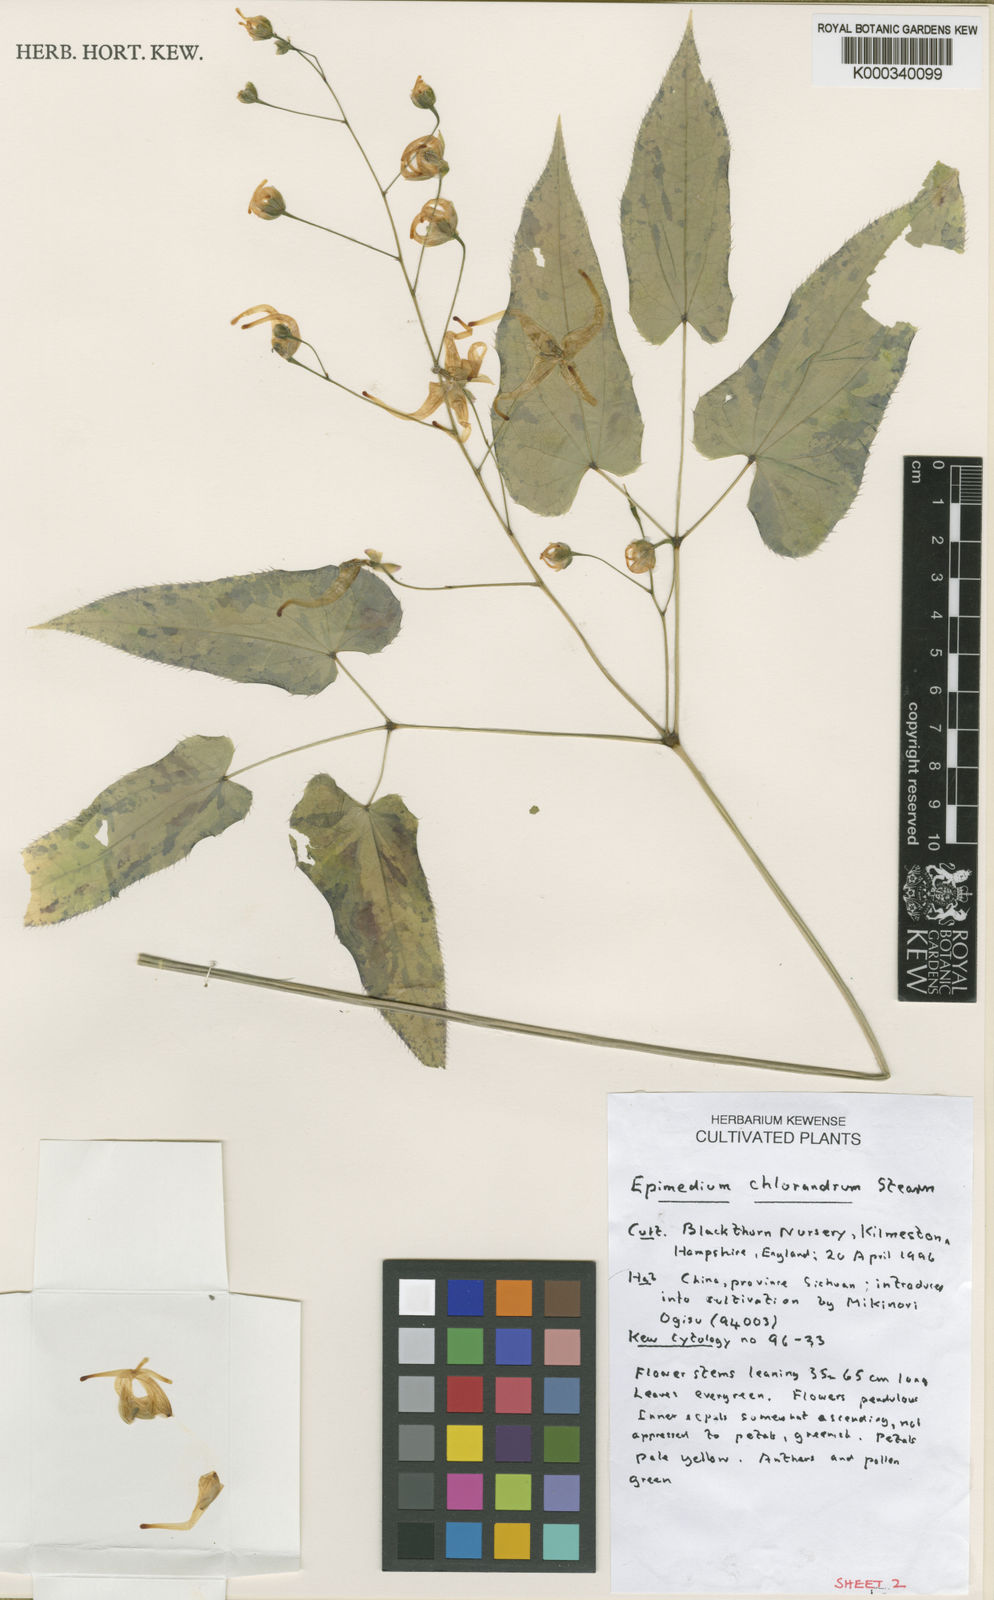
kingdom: Plantae
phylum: Tracheophyta
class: Magnoliopsida
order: Ranunculales
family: Berberidaceae
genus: Epimedium
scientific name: Epimedium acuminatum
